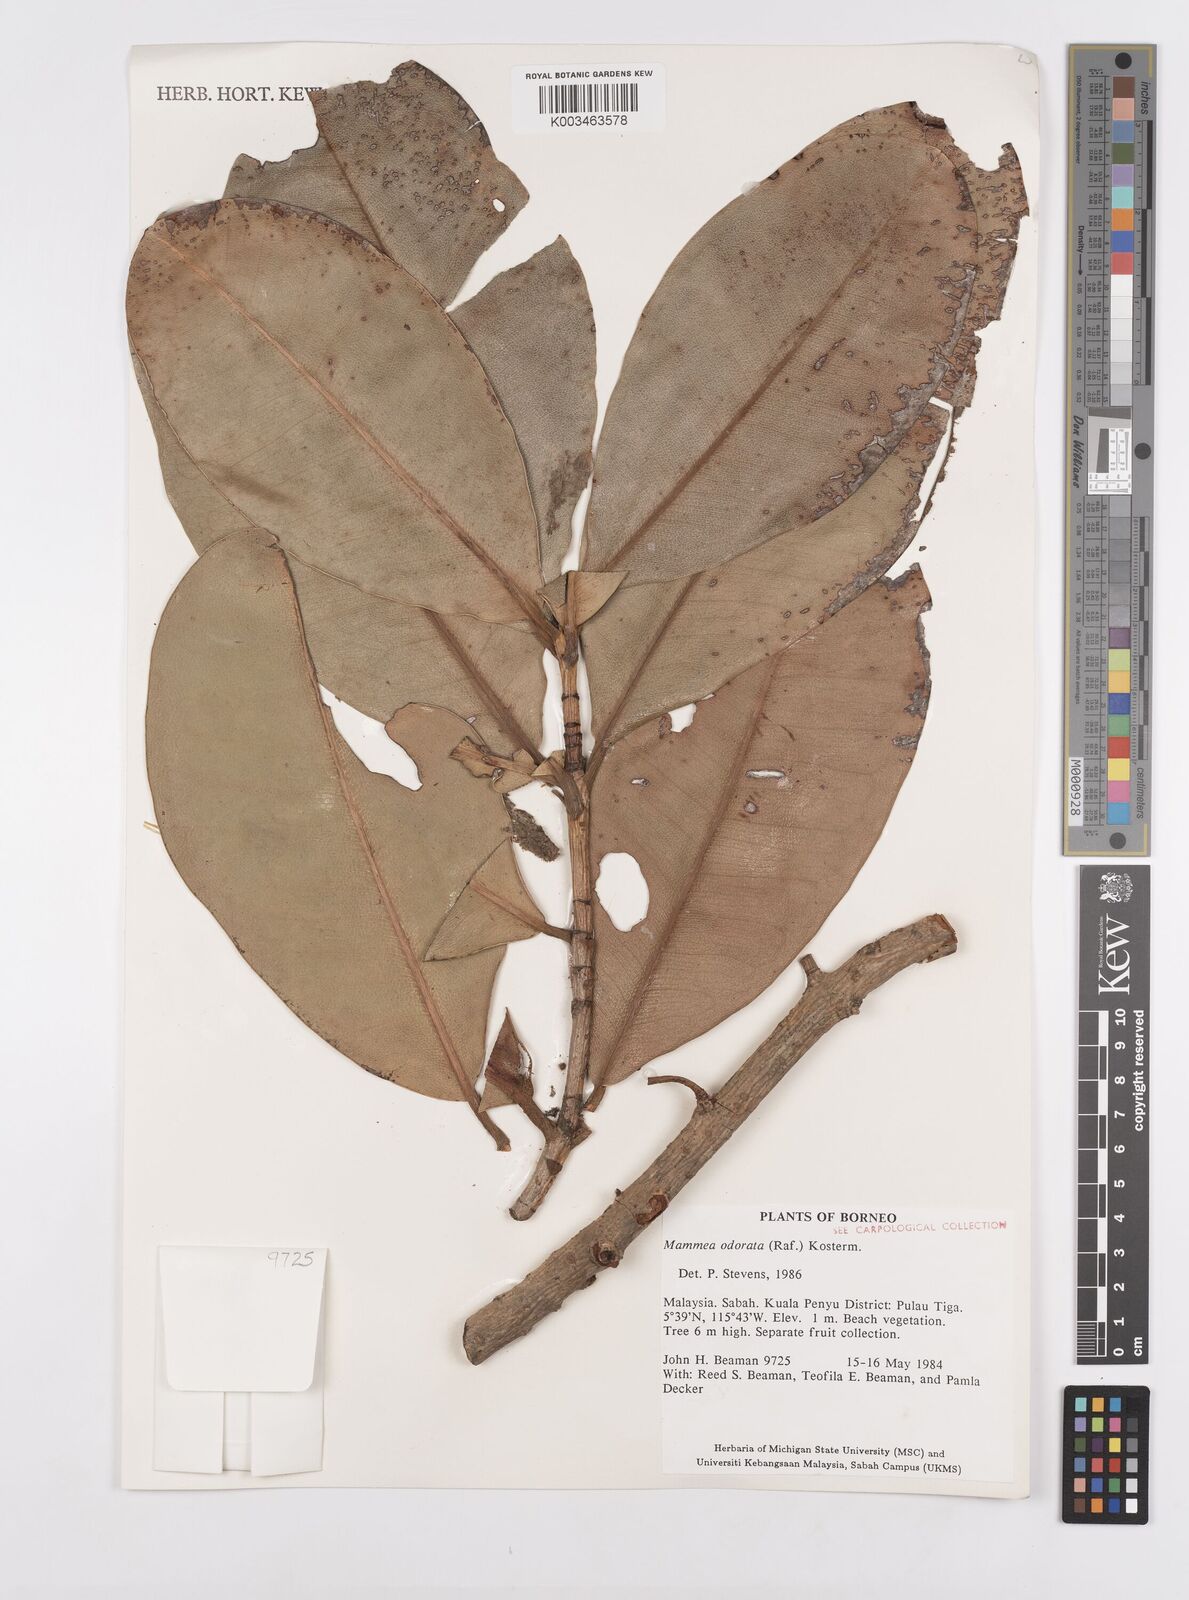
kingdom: Plantae
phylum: Tracheophyta
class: Magnoliopsida
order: Malpighiales
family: Calophyllaceae
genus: Mammea
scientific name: Mammea odorata
